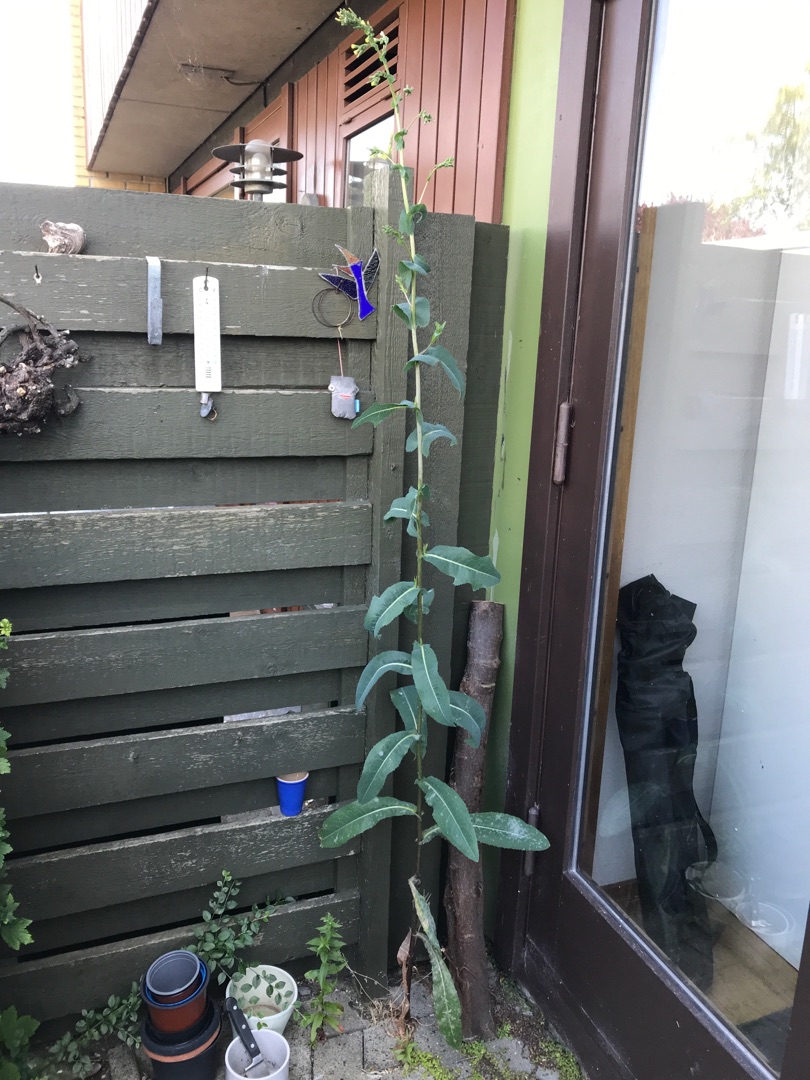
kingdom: Plantae
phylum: Tracheophyta
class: Magnoliopsida
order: Asterales
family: Asteraceae
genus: Lactuca
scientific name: Lactuca serriola
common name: Tornet salat
